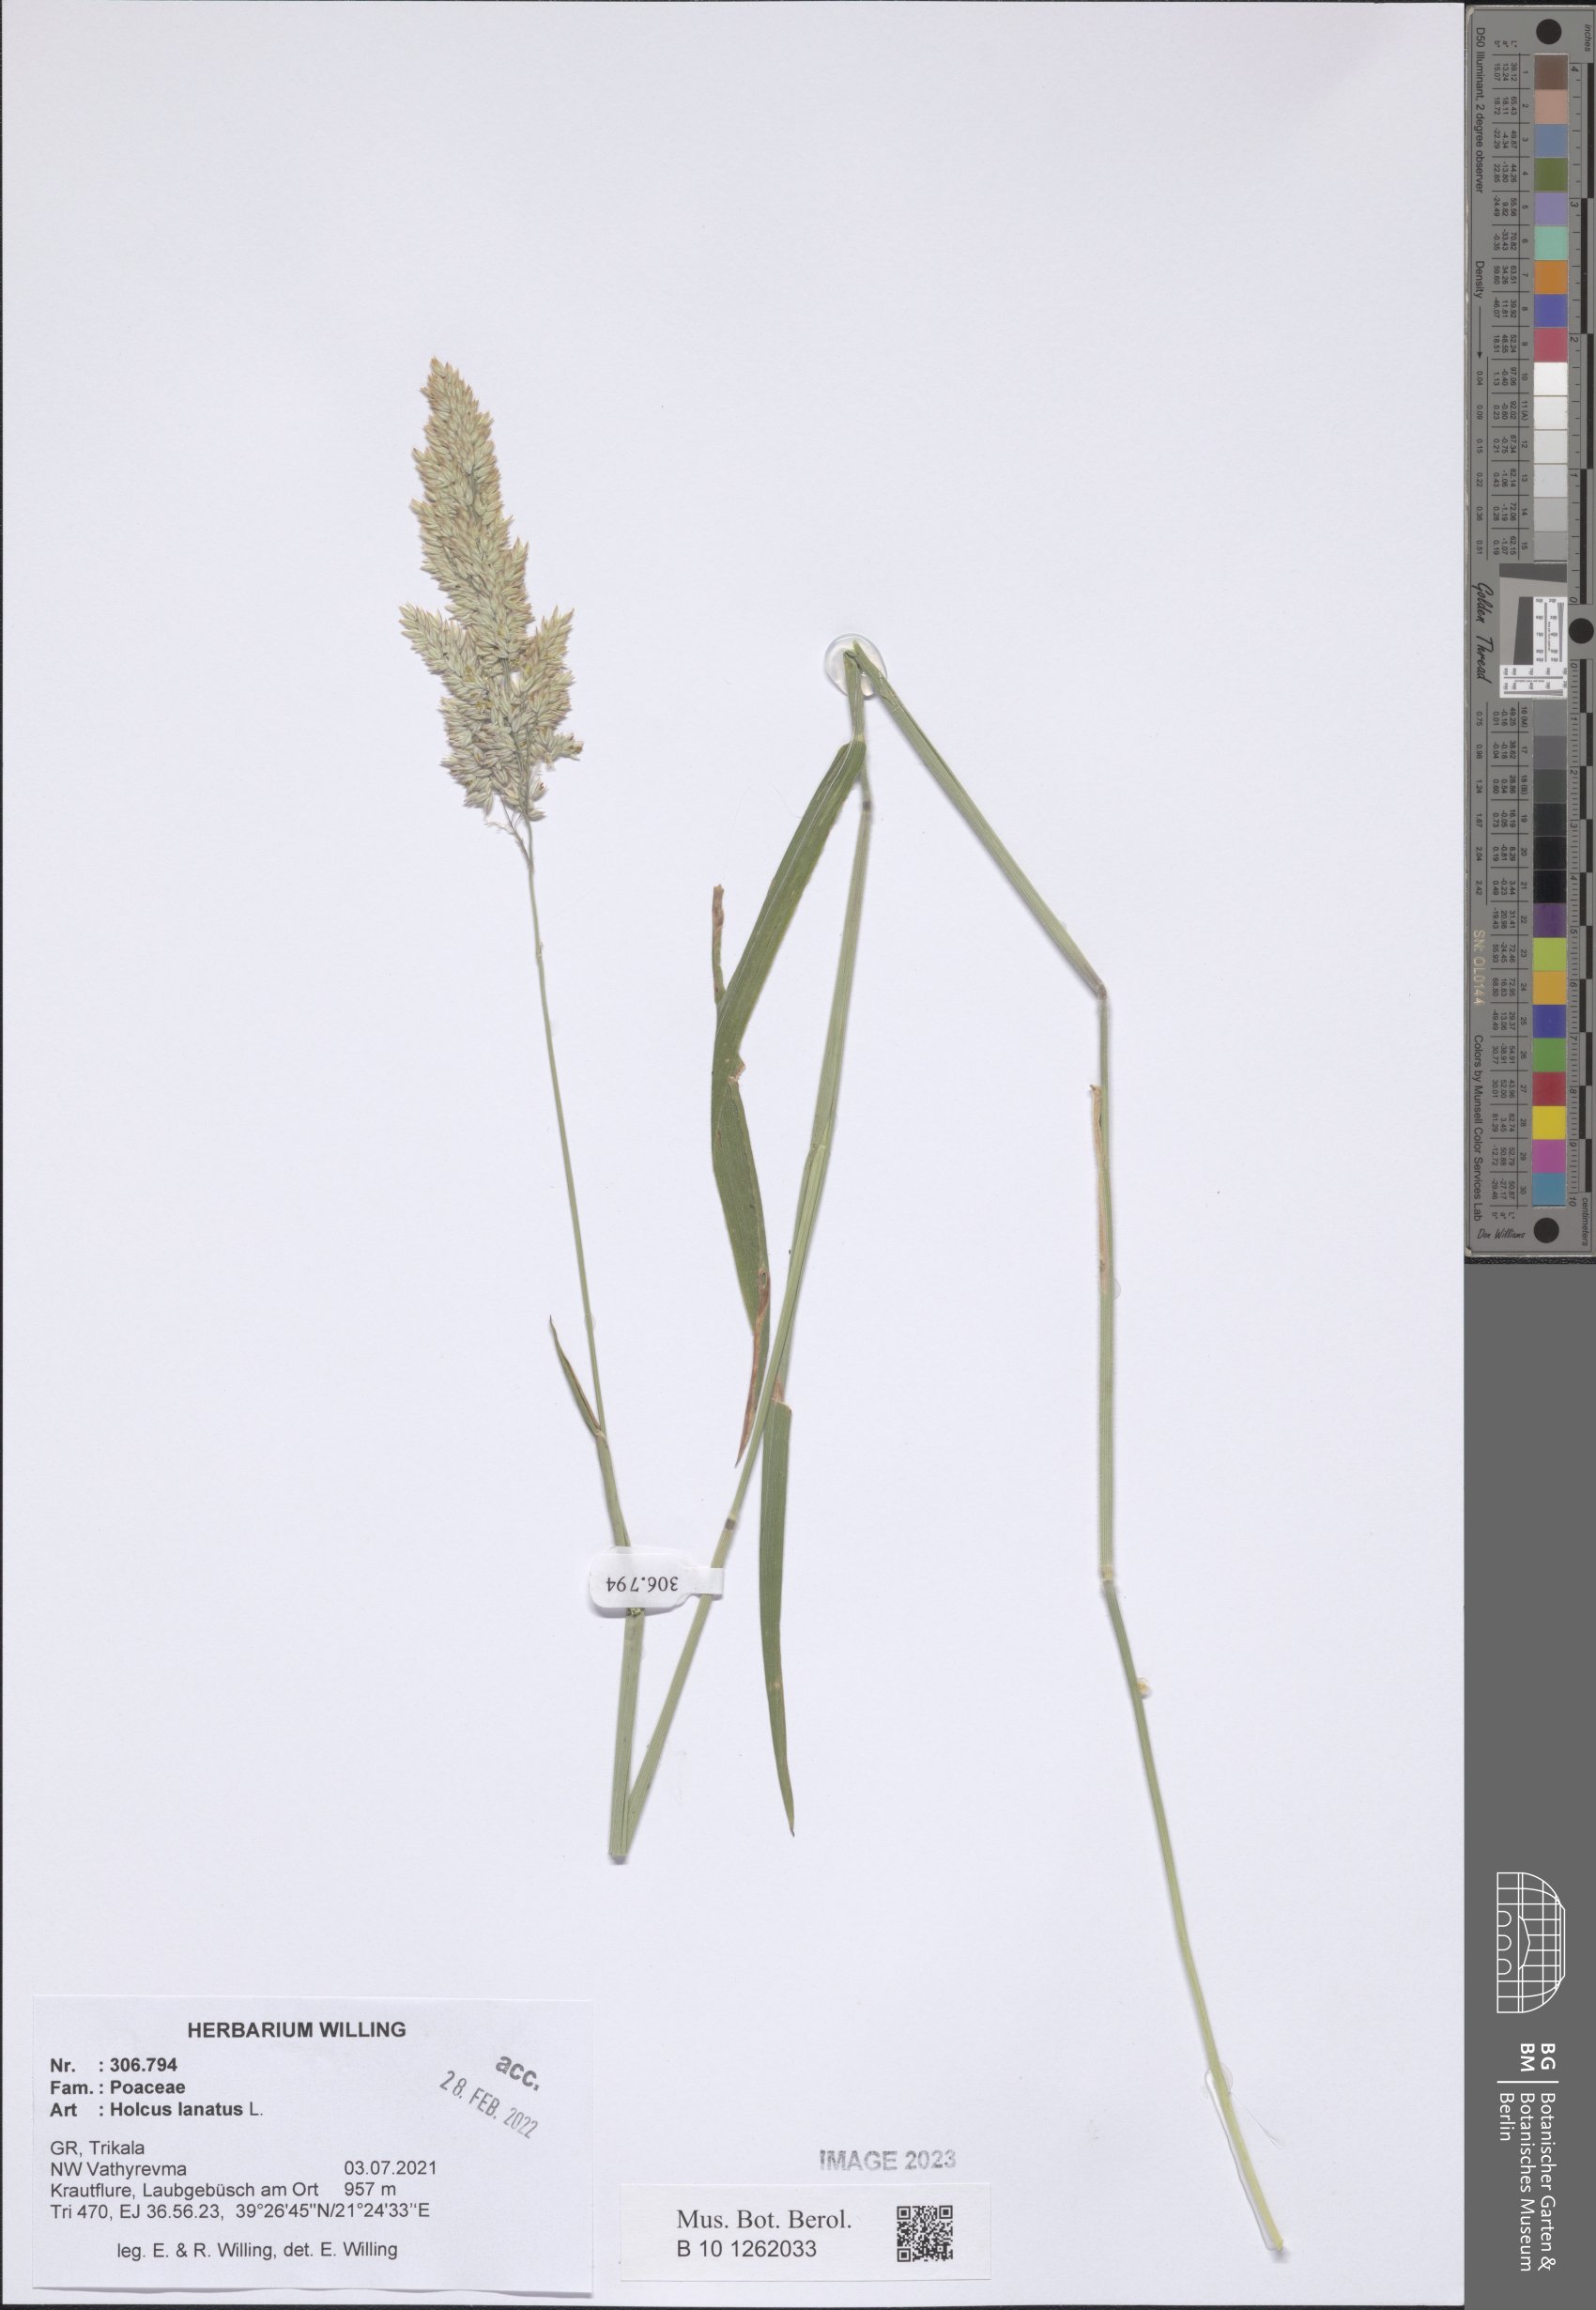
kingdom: Plantae
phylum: Tracheophyta
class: Liliopsida
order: Poales
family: Poaceae
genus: Holcus
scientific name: Holcus lanatus
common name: Yorkshire-fog
